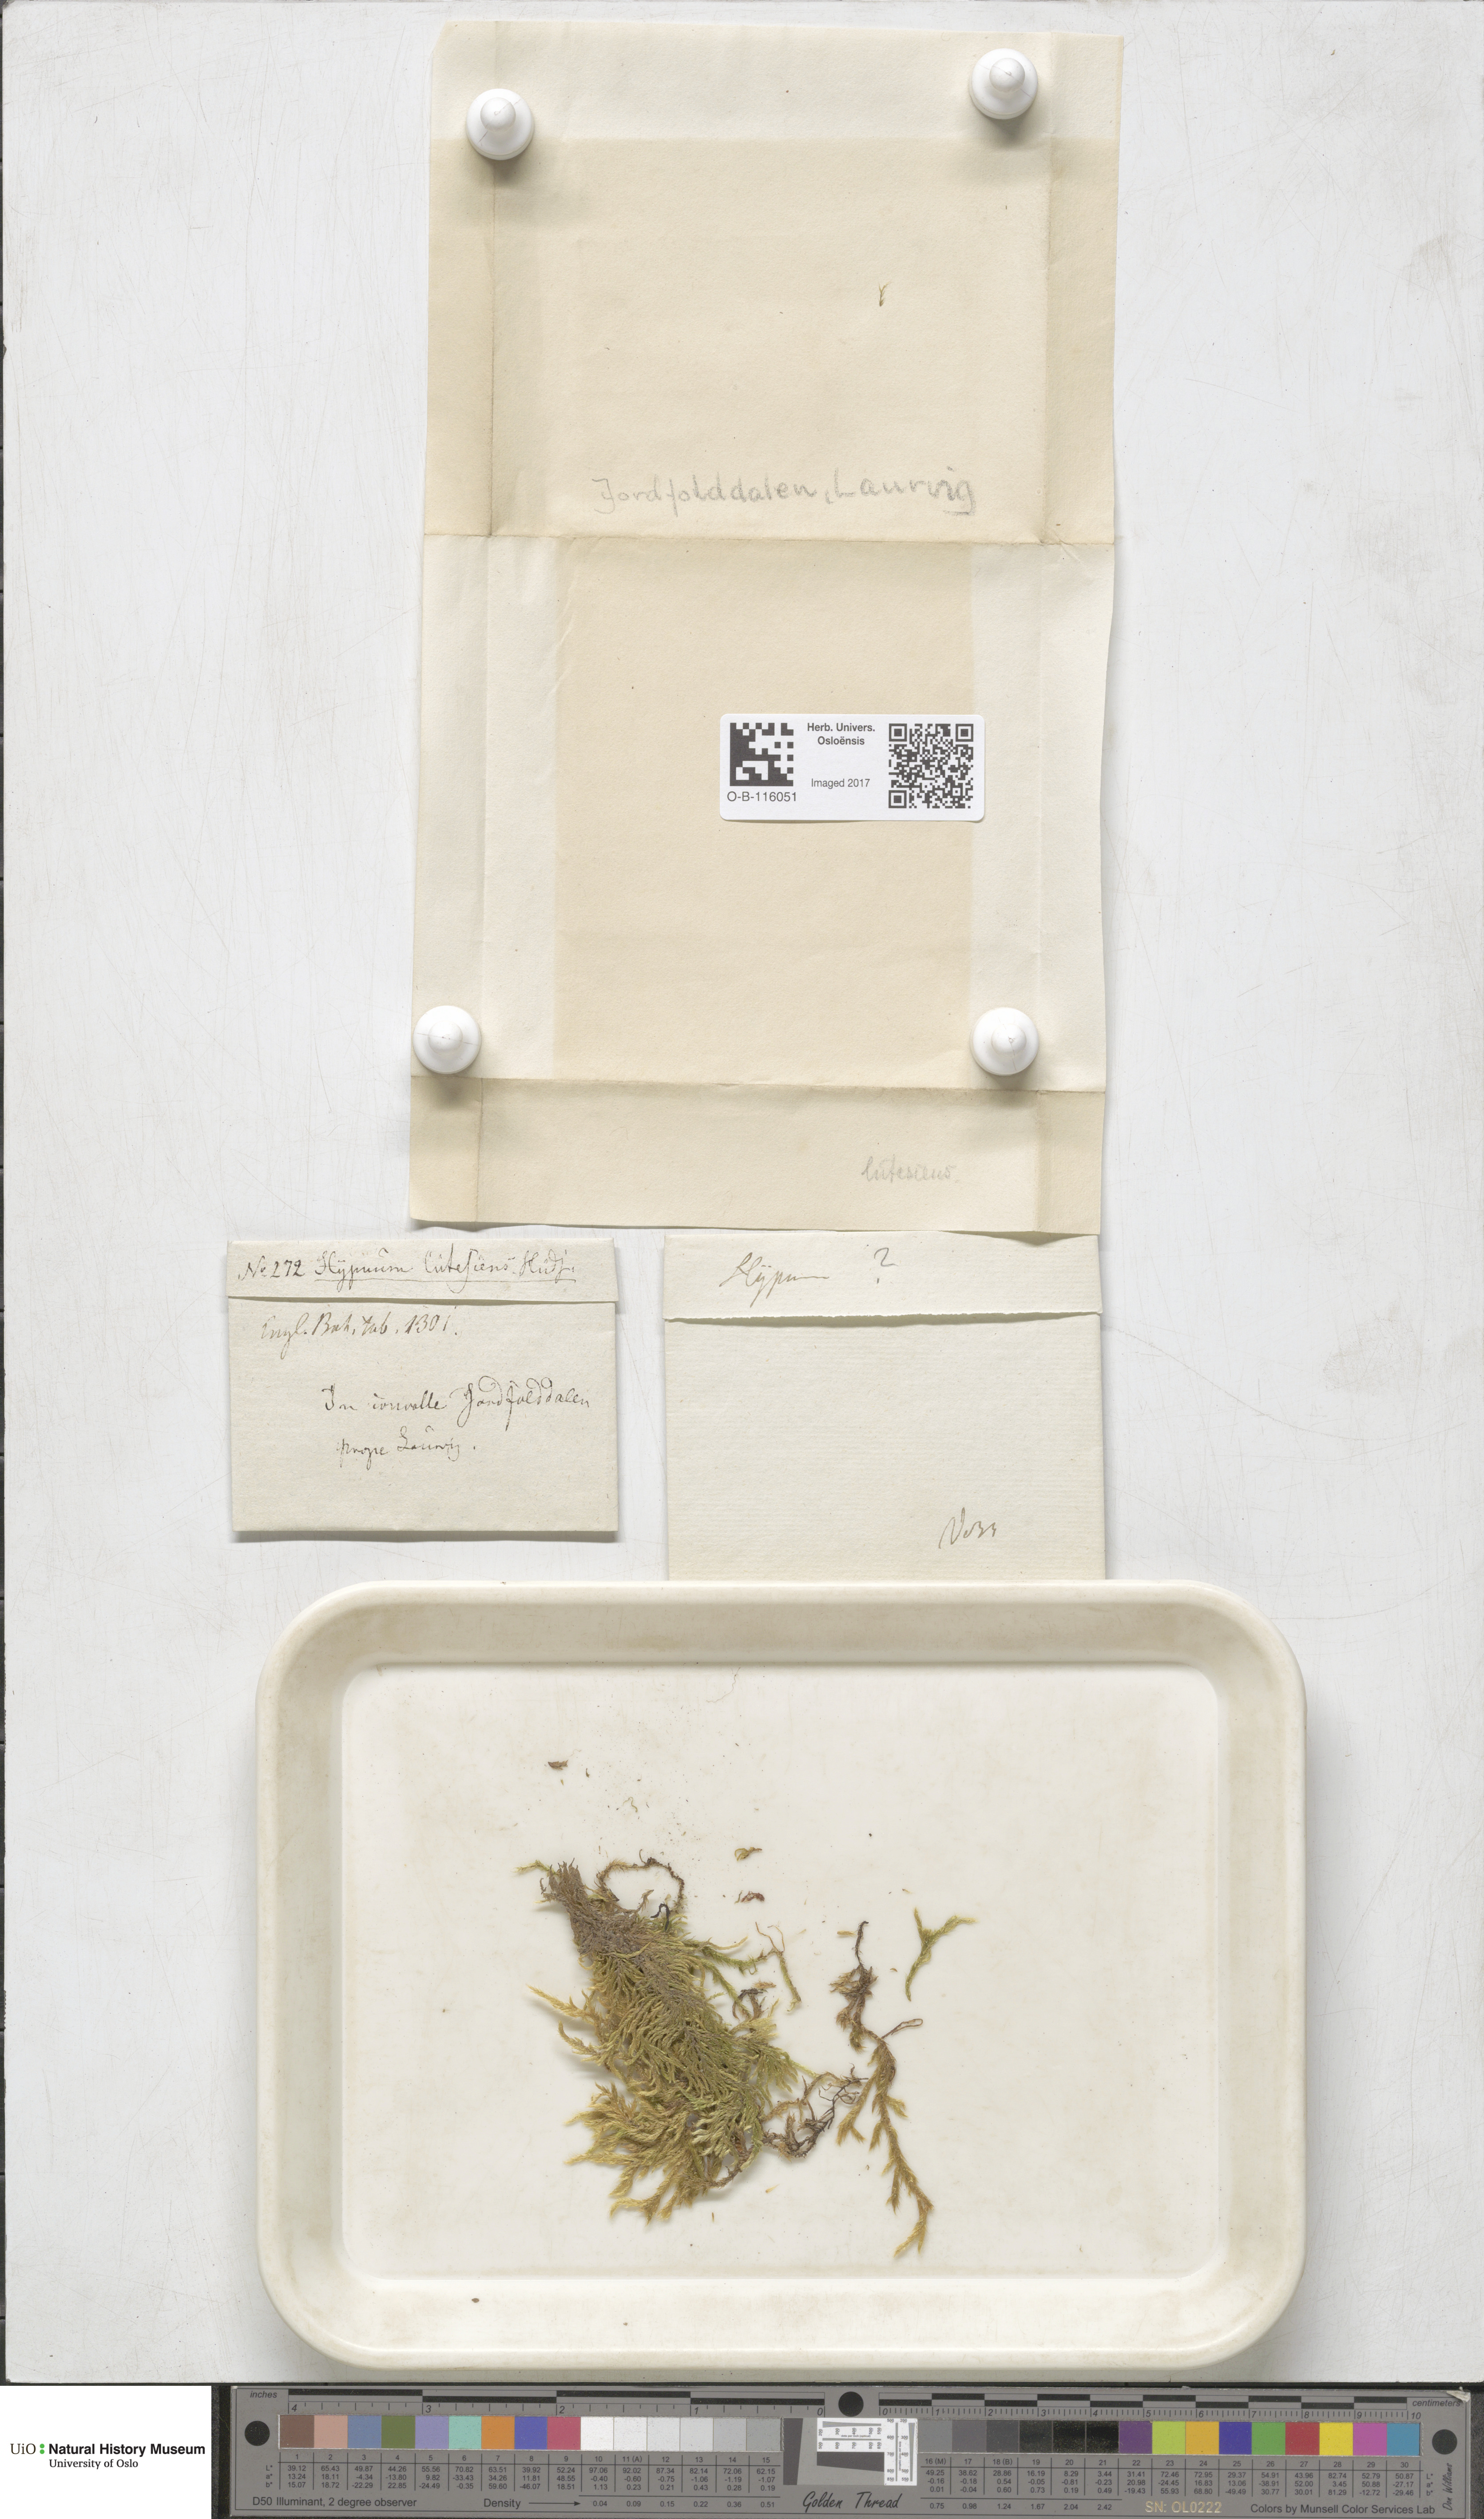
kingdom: Plantae
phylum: Bryophyta
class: Bryopsida
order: Hypnales
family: Brachytheciaceae
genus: Homalothecium
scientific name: Homalothecium lutescens
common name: Yellow feather-moss
